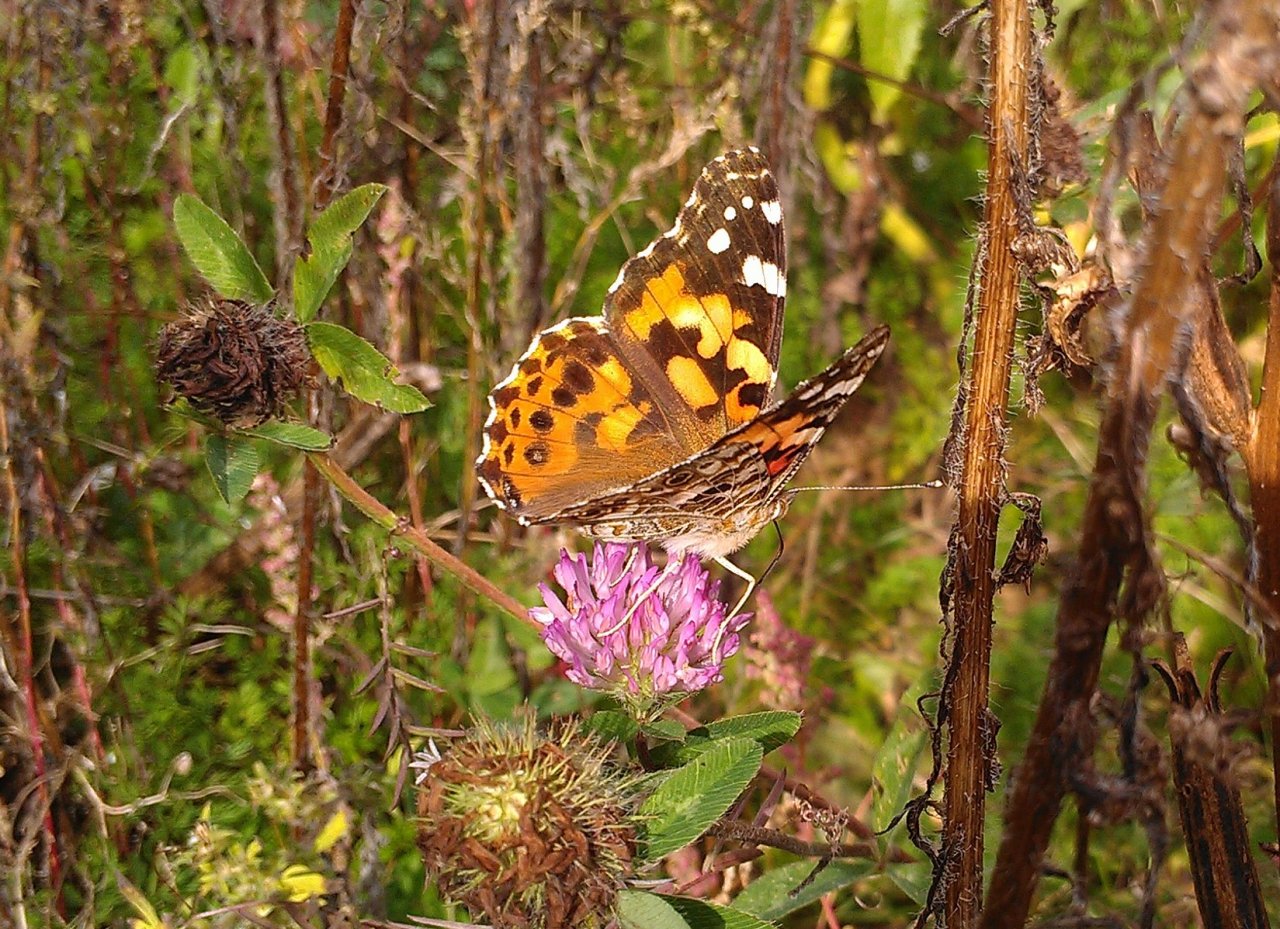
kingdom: Animalia
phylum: Arthropoda
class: Insecta
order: Lepidoptera
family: Nymphalidae
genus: Vanessa
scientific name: Vanessa cardui
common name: Painted Lady
